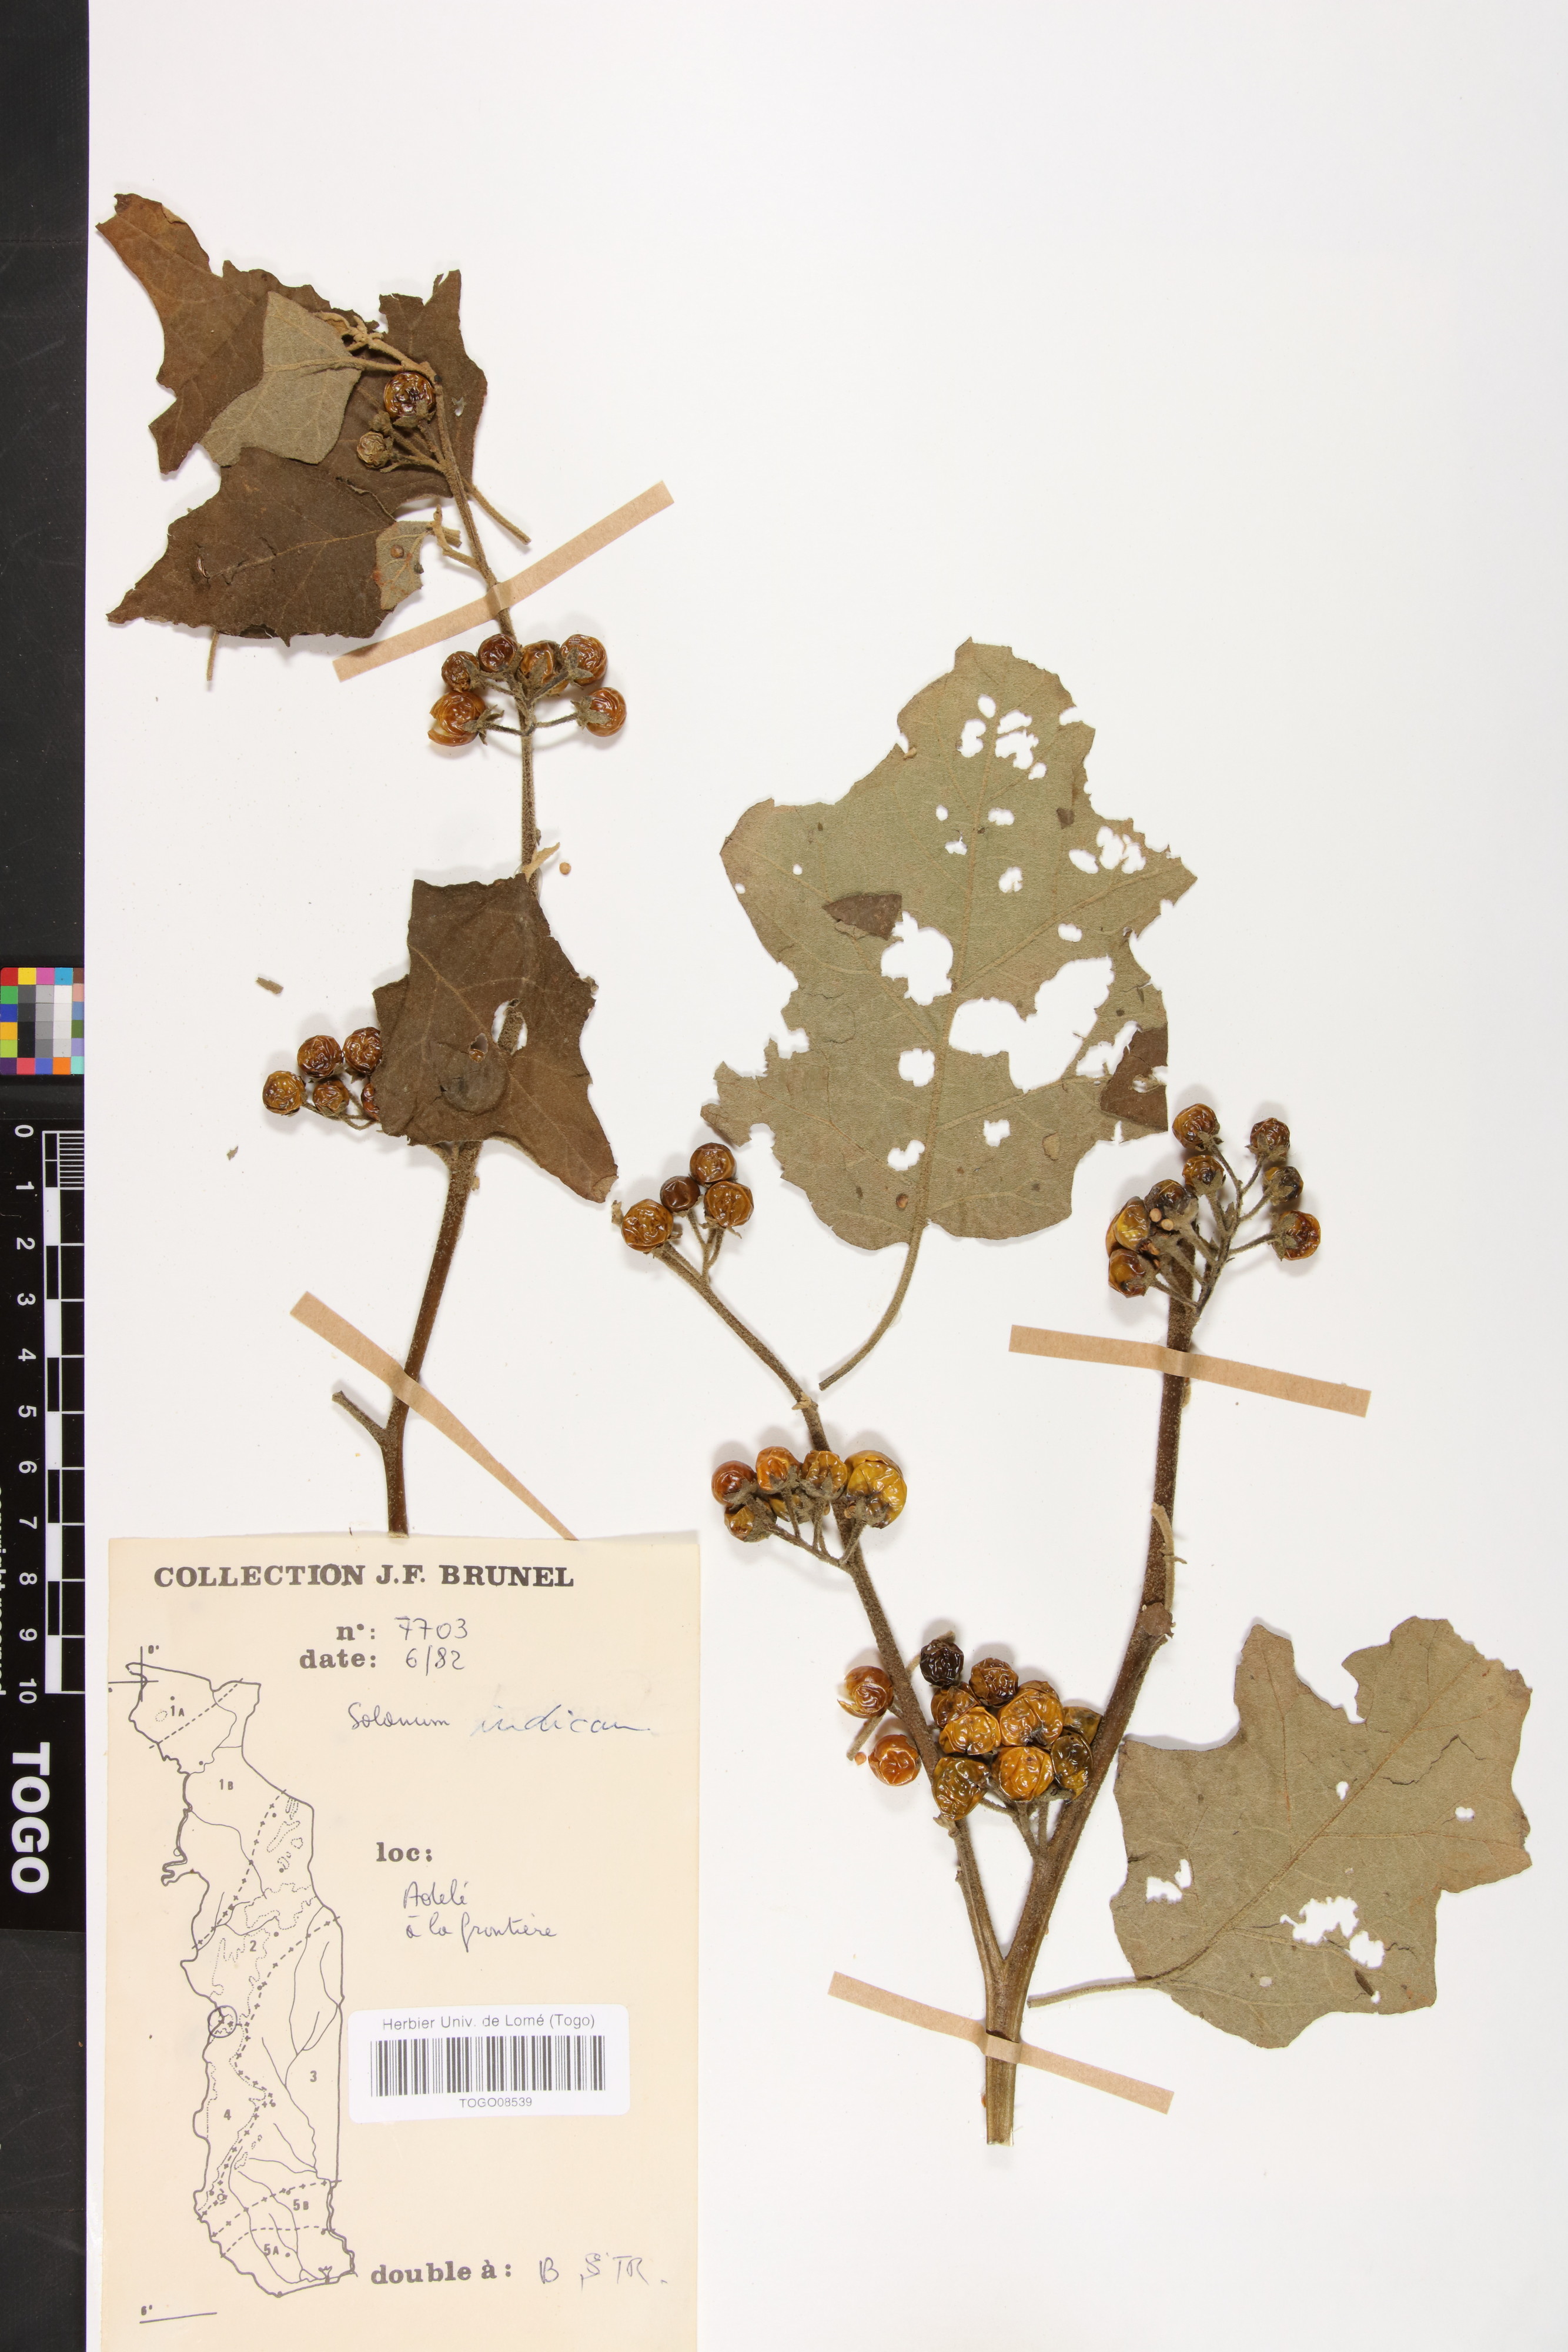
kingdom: Plantae
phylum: Tracheophyta
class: Magnoliopsida
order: Solanales
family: Solanaceae
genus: Solanum
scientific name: Solanum violaceum
